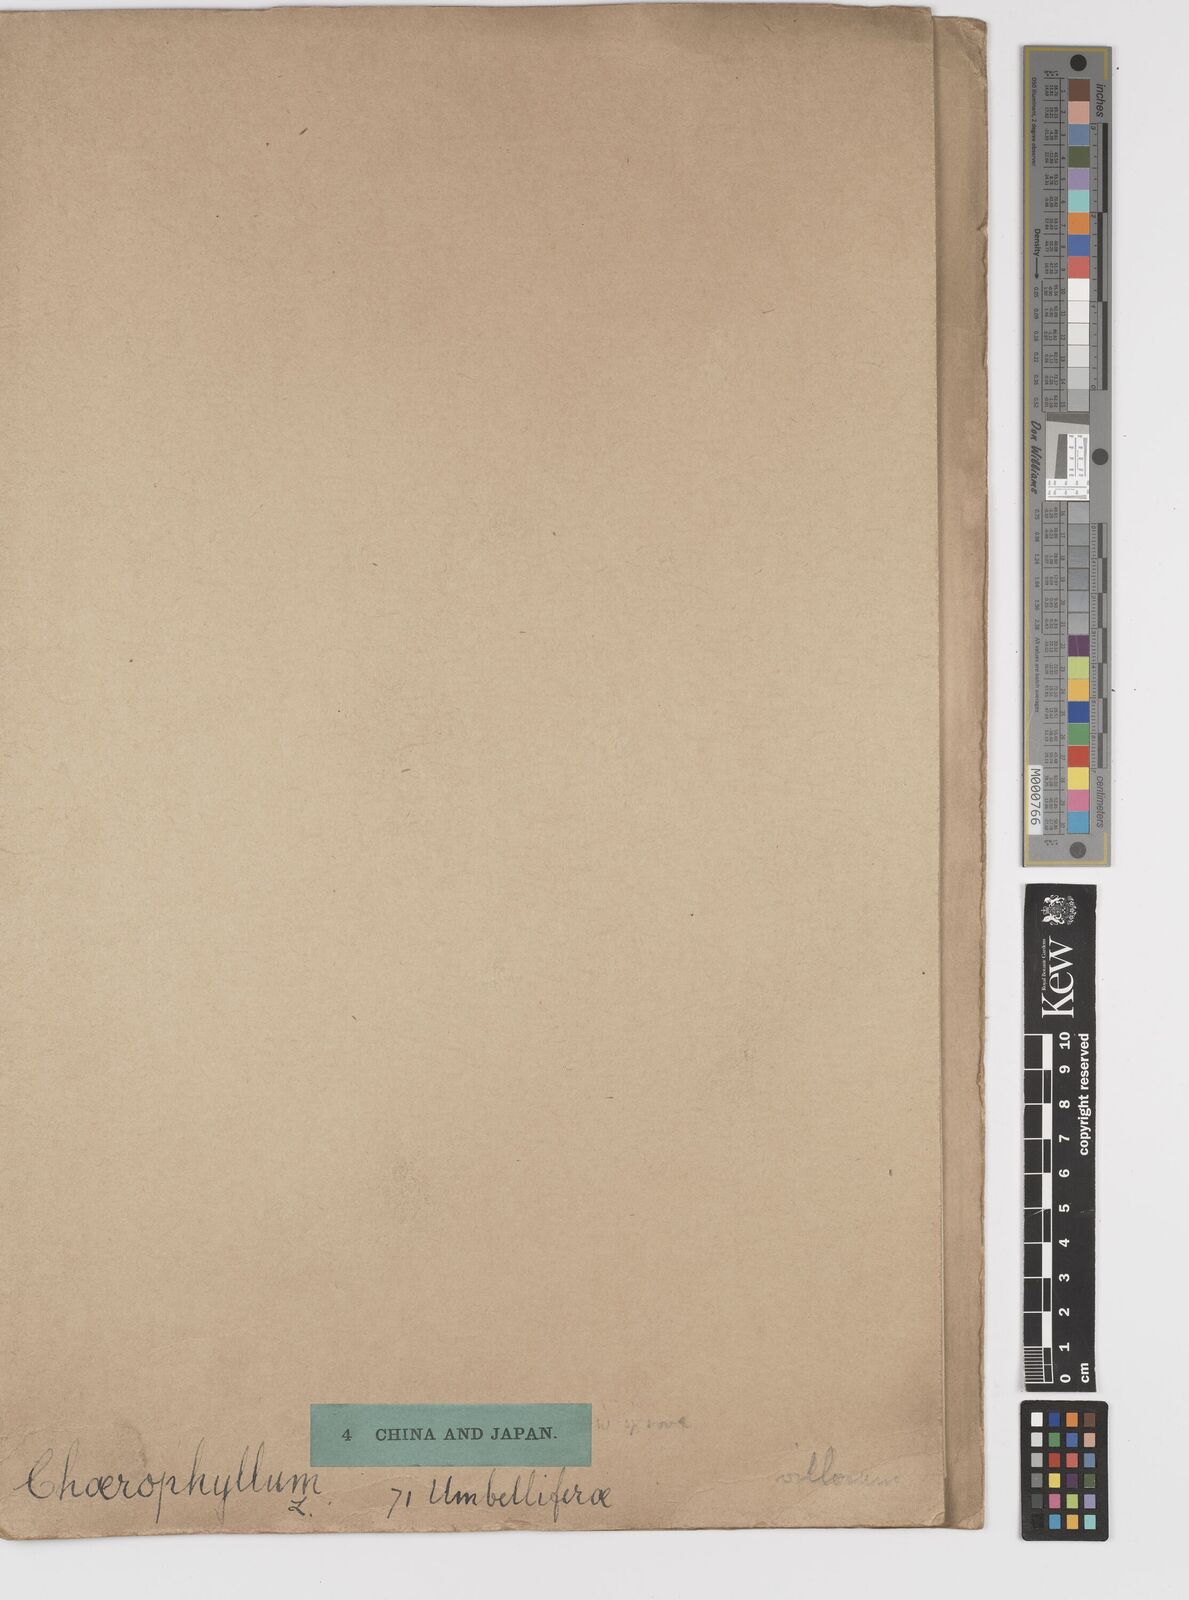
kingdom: Plantae
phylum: Tracheophyta
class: Magnoliopsida
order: Apiales
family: Apiaceae
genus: Kozlovia
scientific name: Kozlovia longiloba
